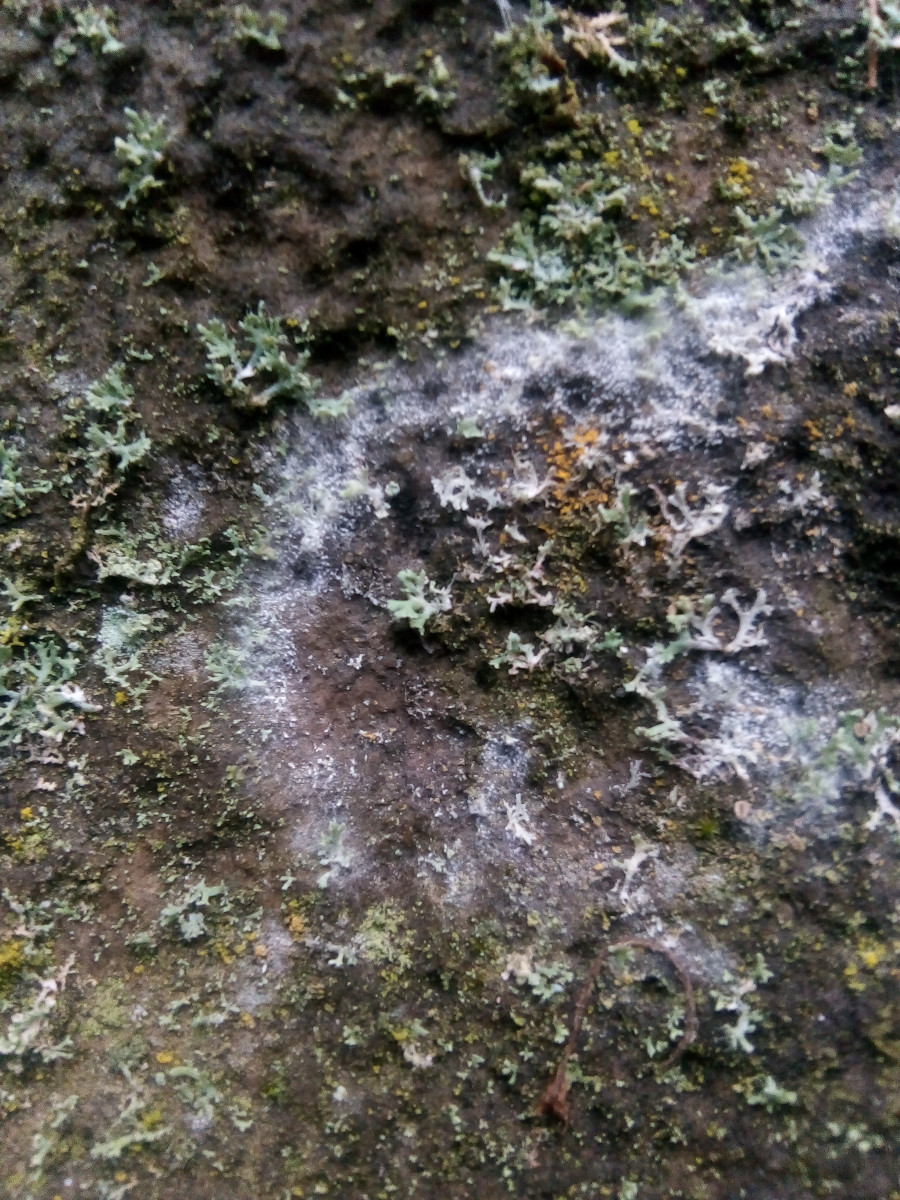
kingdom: Fungi
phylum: Basidiomycota
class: Agaricomycetes
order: Atheliales
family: Atheliaceae
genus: Athelia
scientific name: Athelia arachnoidea
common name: randet barkhinde
